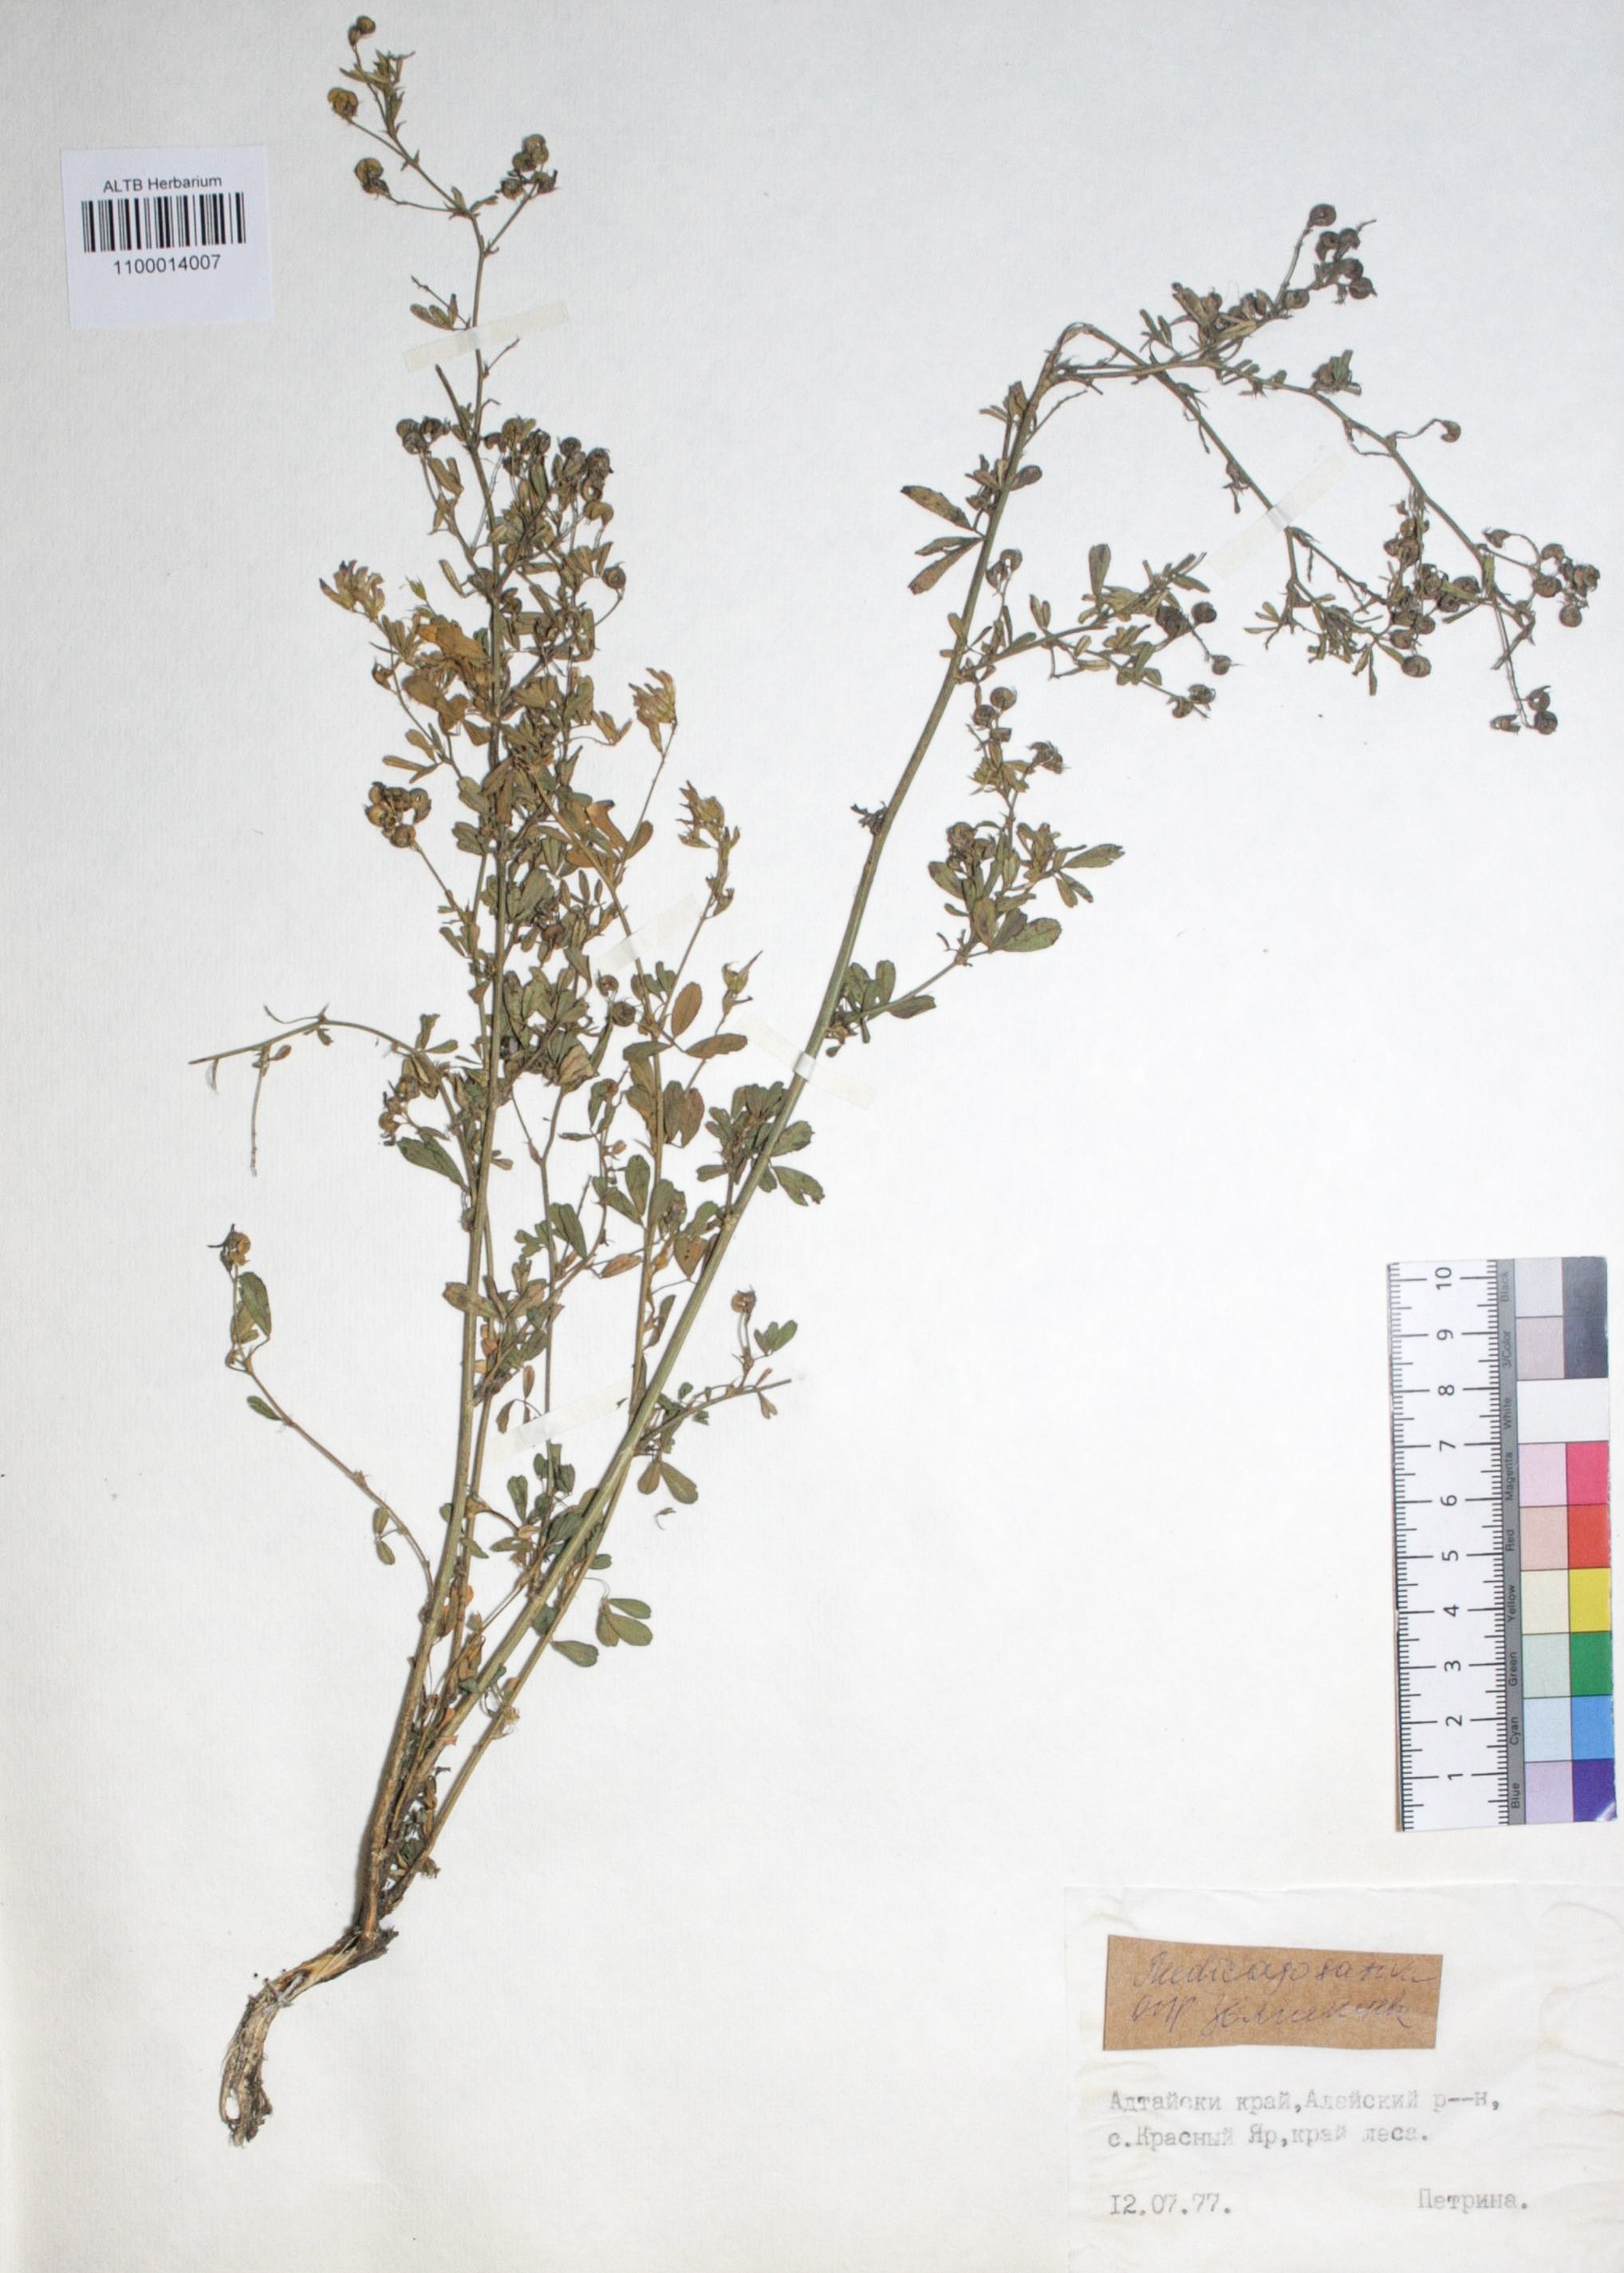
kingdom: Plantae
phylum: Tracheophyta
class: Magnoliopsida
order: Fabales
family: Fabaceae
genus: Medicago
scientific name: Medicago sativa
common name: Alfalfa
